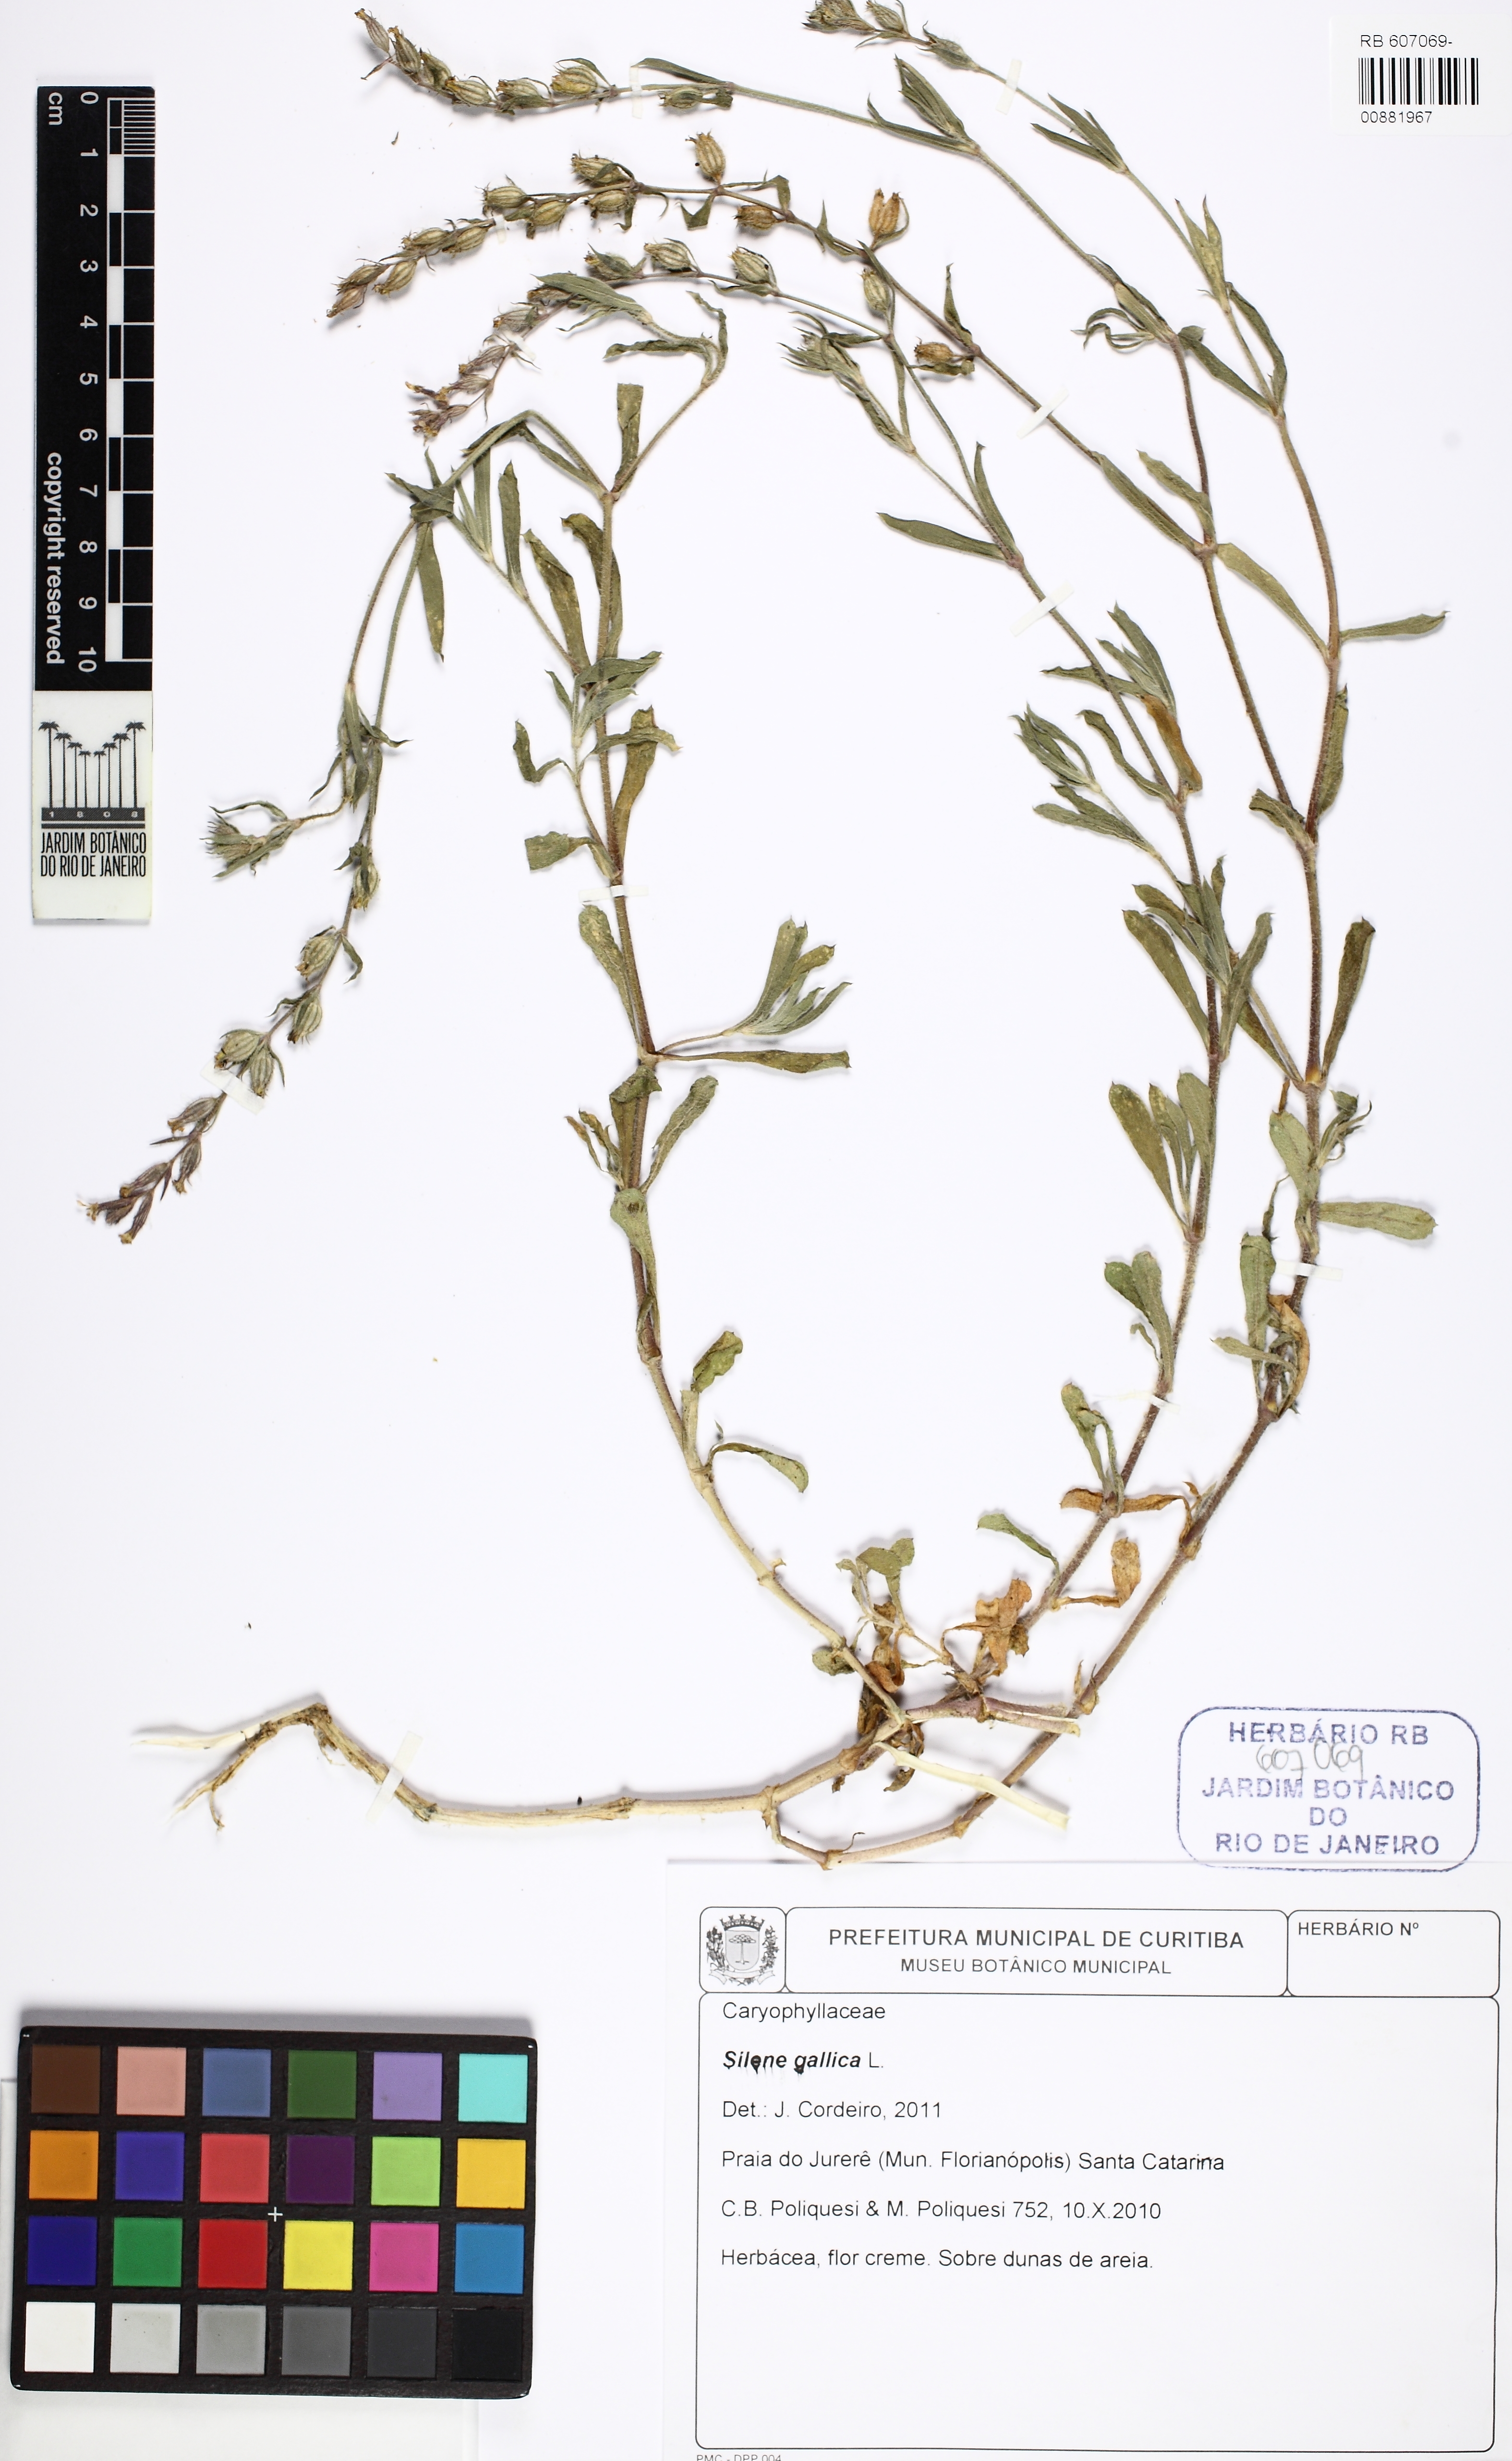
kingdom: Plantae
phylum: Tracheophyta
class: Magnoliopsida
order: Caryophyllales
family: Caryophyllaceae
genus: Silene
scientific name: Silene gallica
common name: Small-flowered catchfly
